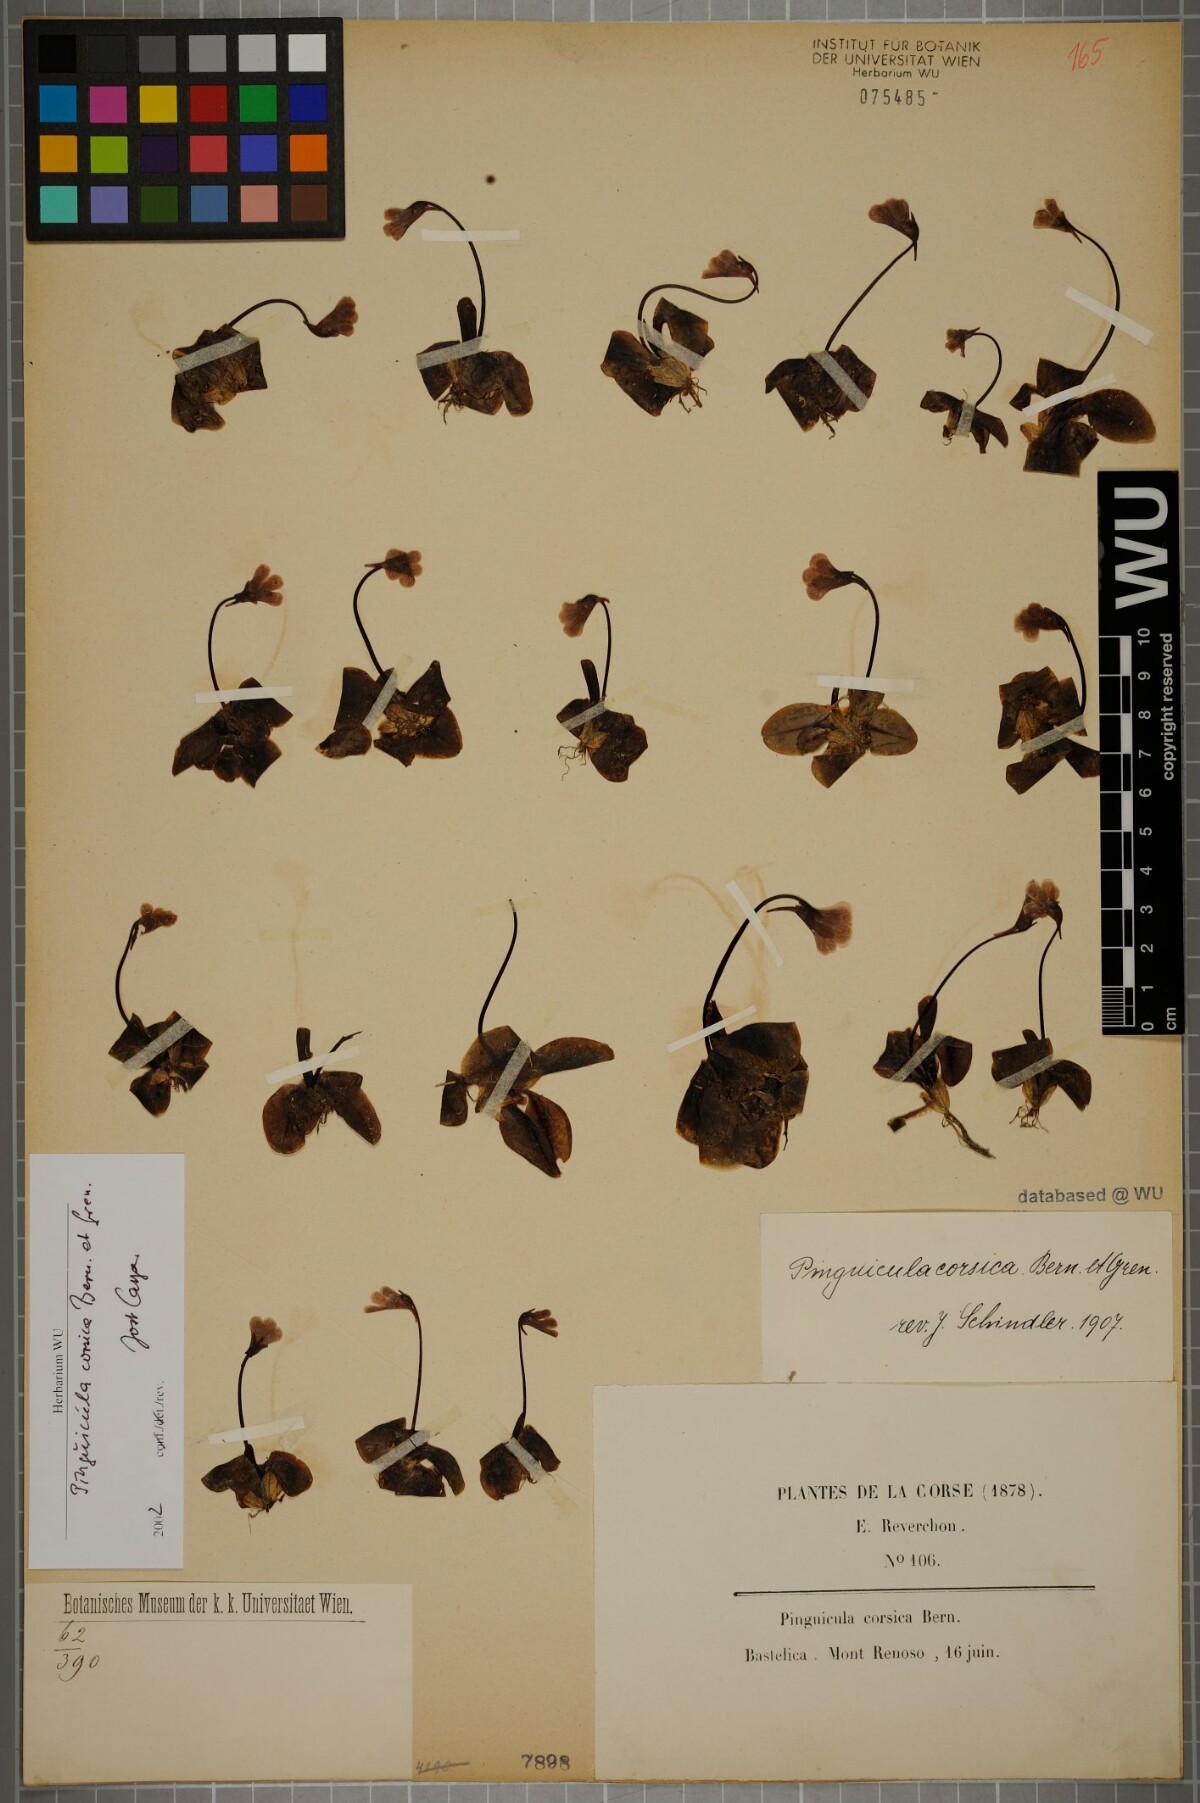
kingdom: Plantae
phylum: Tracheophyta
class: Magnoliopsida
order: Lamiales
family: Lentibulariaceae
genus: Pinguicula
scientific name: Pinguicula corsica
